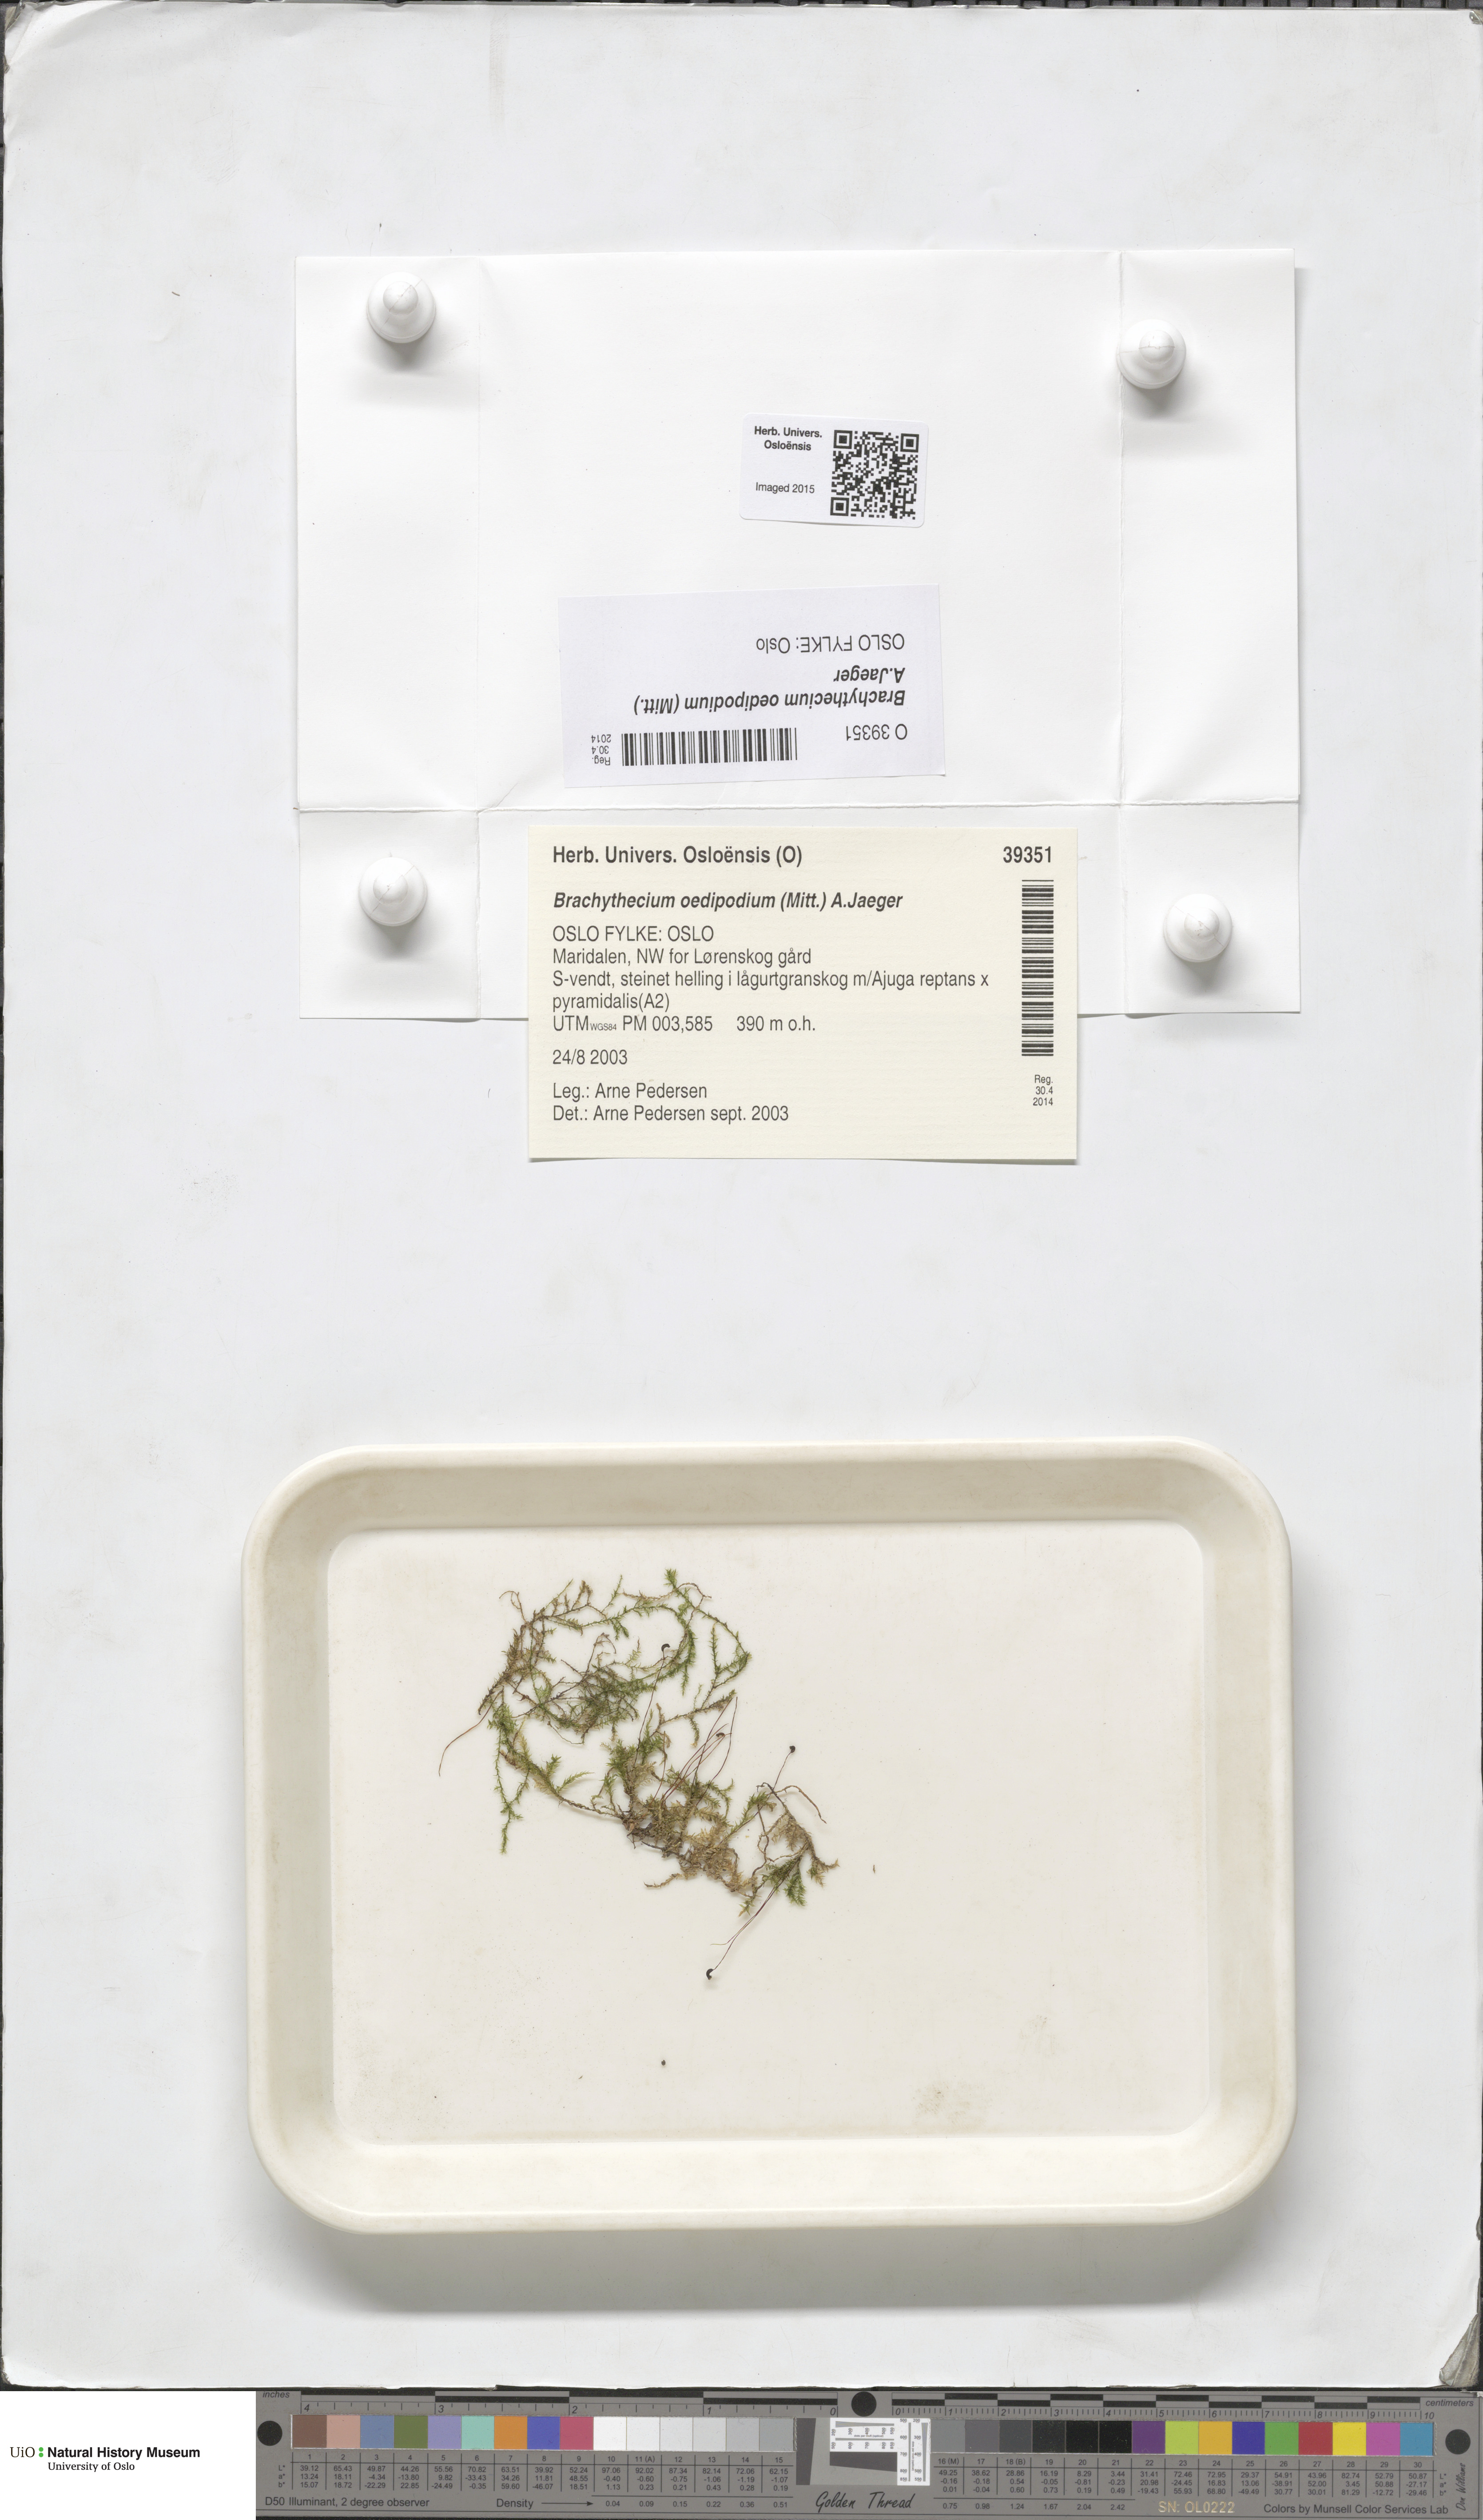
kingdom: Plantae
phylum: Bryophyta
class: Bryopsida
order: Hypnales
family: Brachytheciaceae
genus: Sciuro-hypnum
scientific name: Sciuro-hypnum oedipodium
